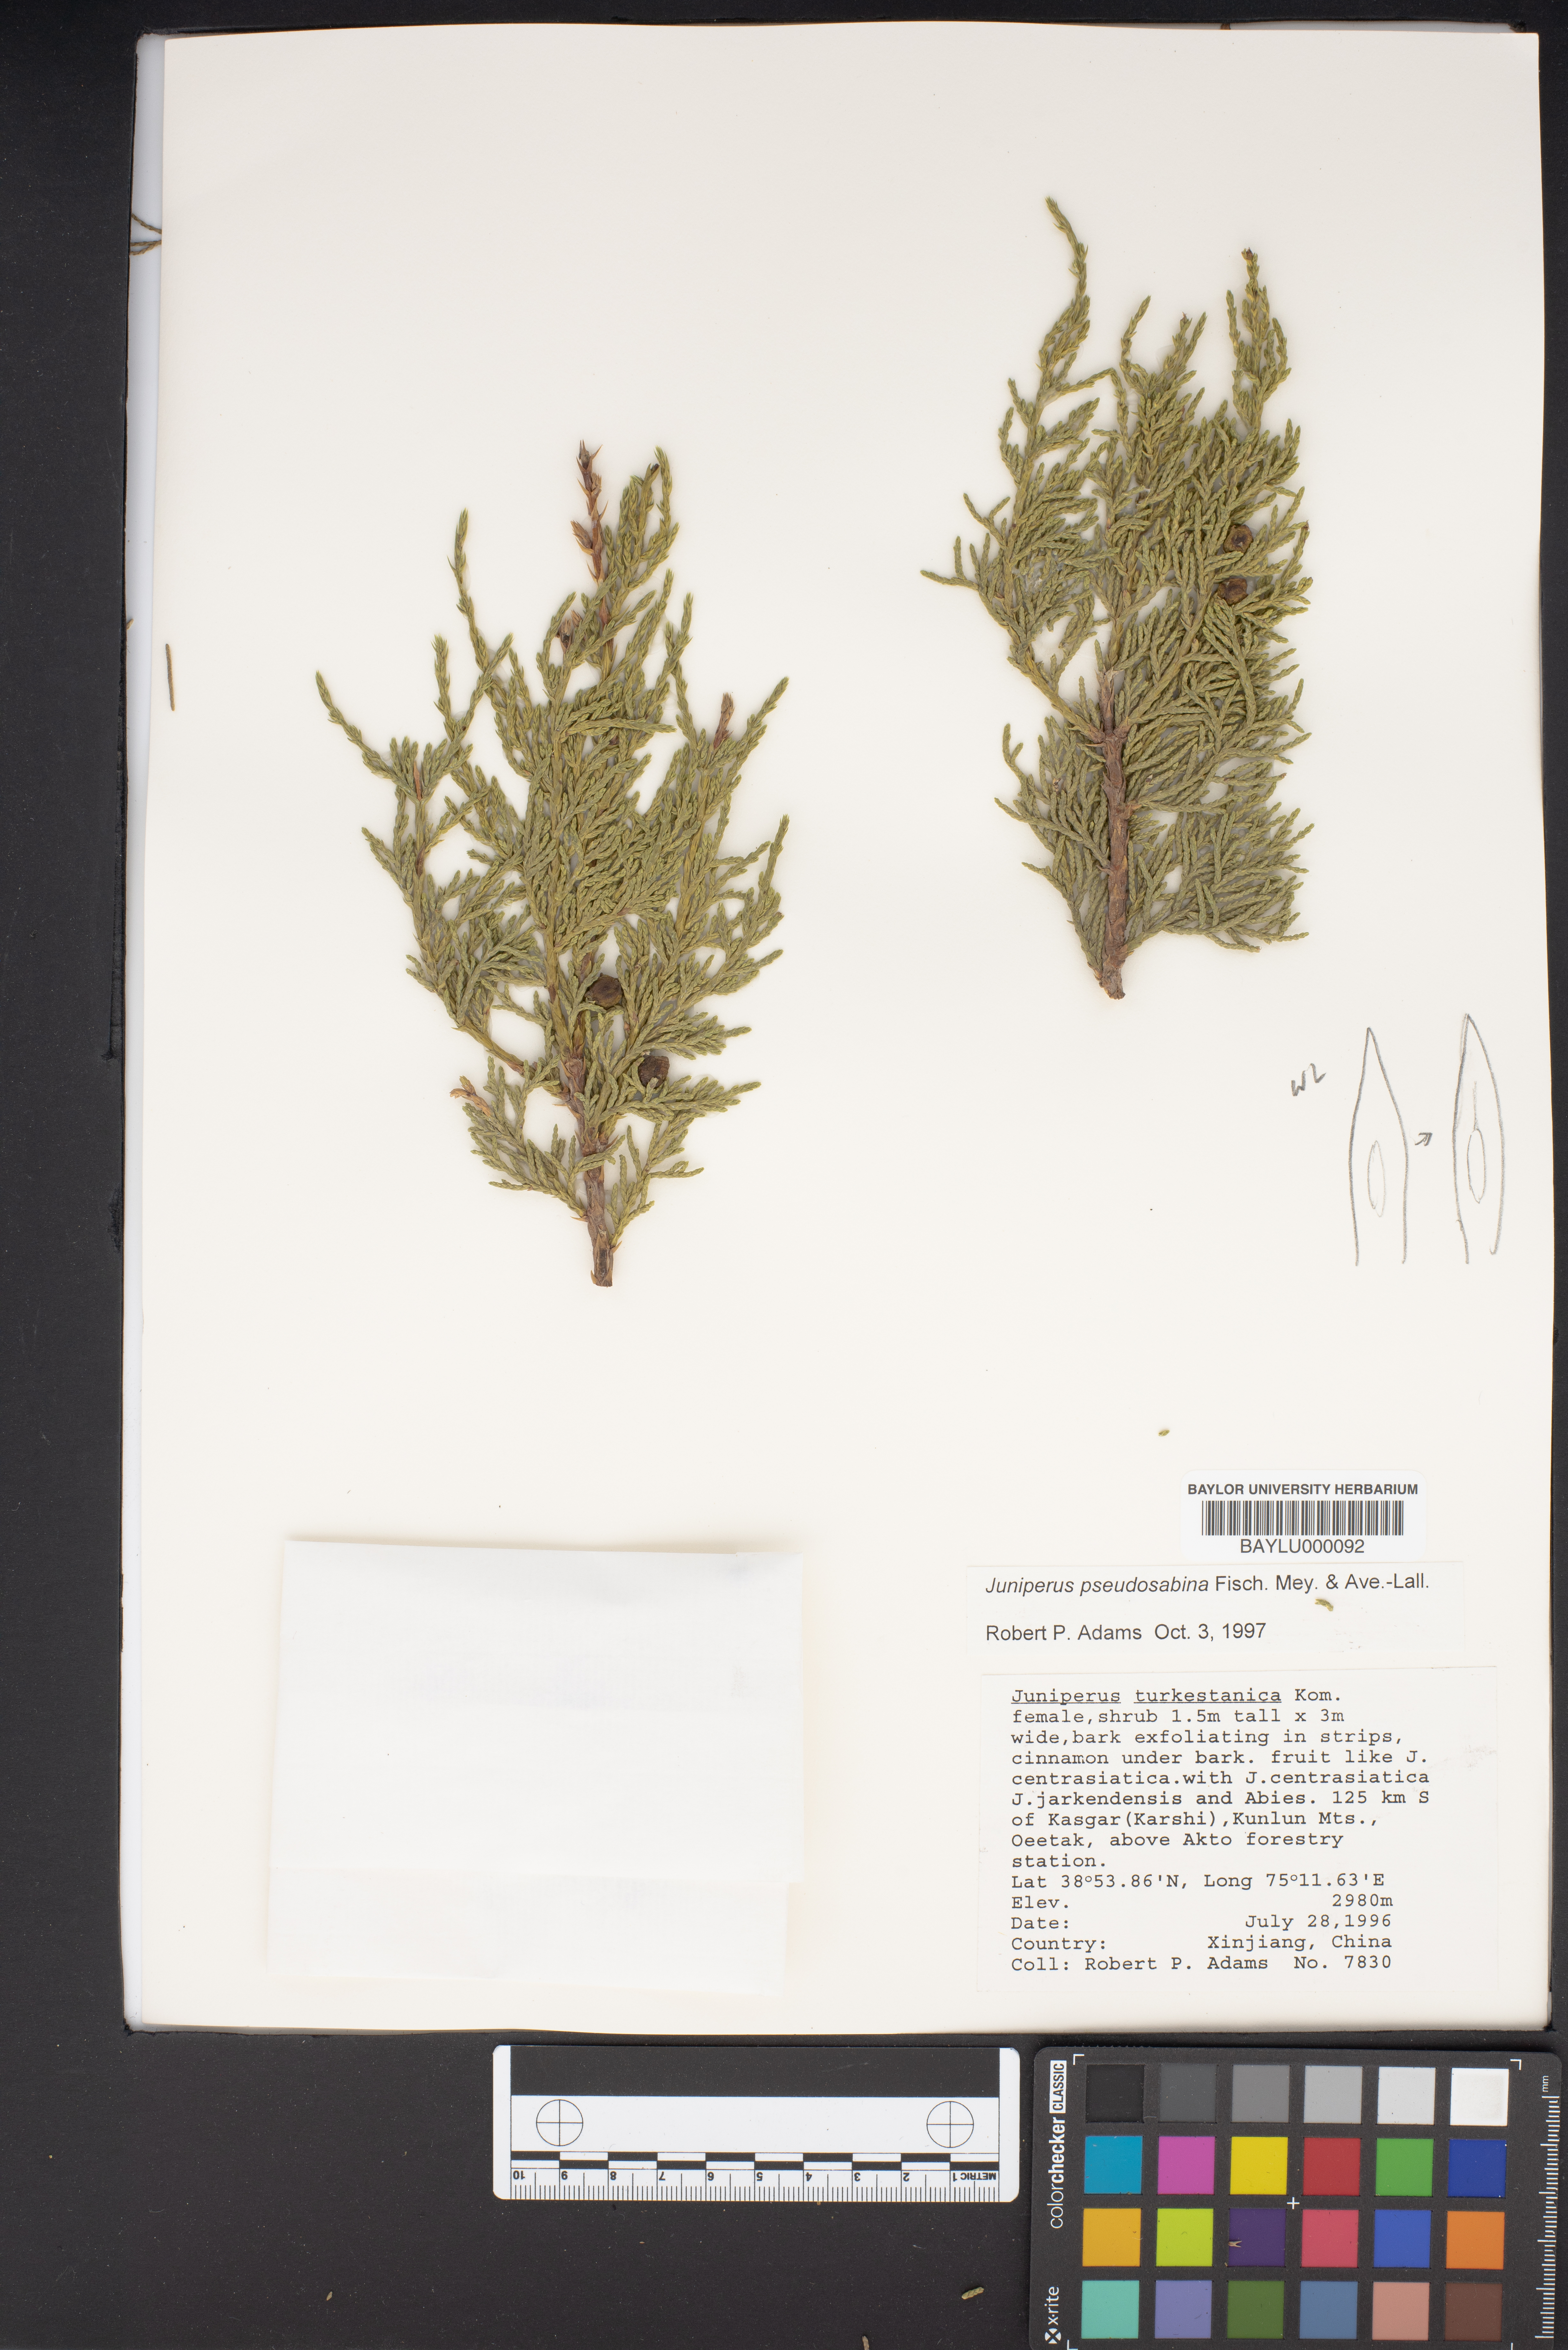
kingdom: Plantae
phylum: Tracheophyta
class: Pinopsida
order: Pinales
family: Cupressaceae
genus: Juniperus
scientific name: Juniperus pseudosabina
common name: Turkestan juniper
